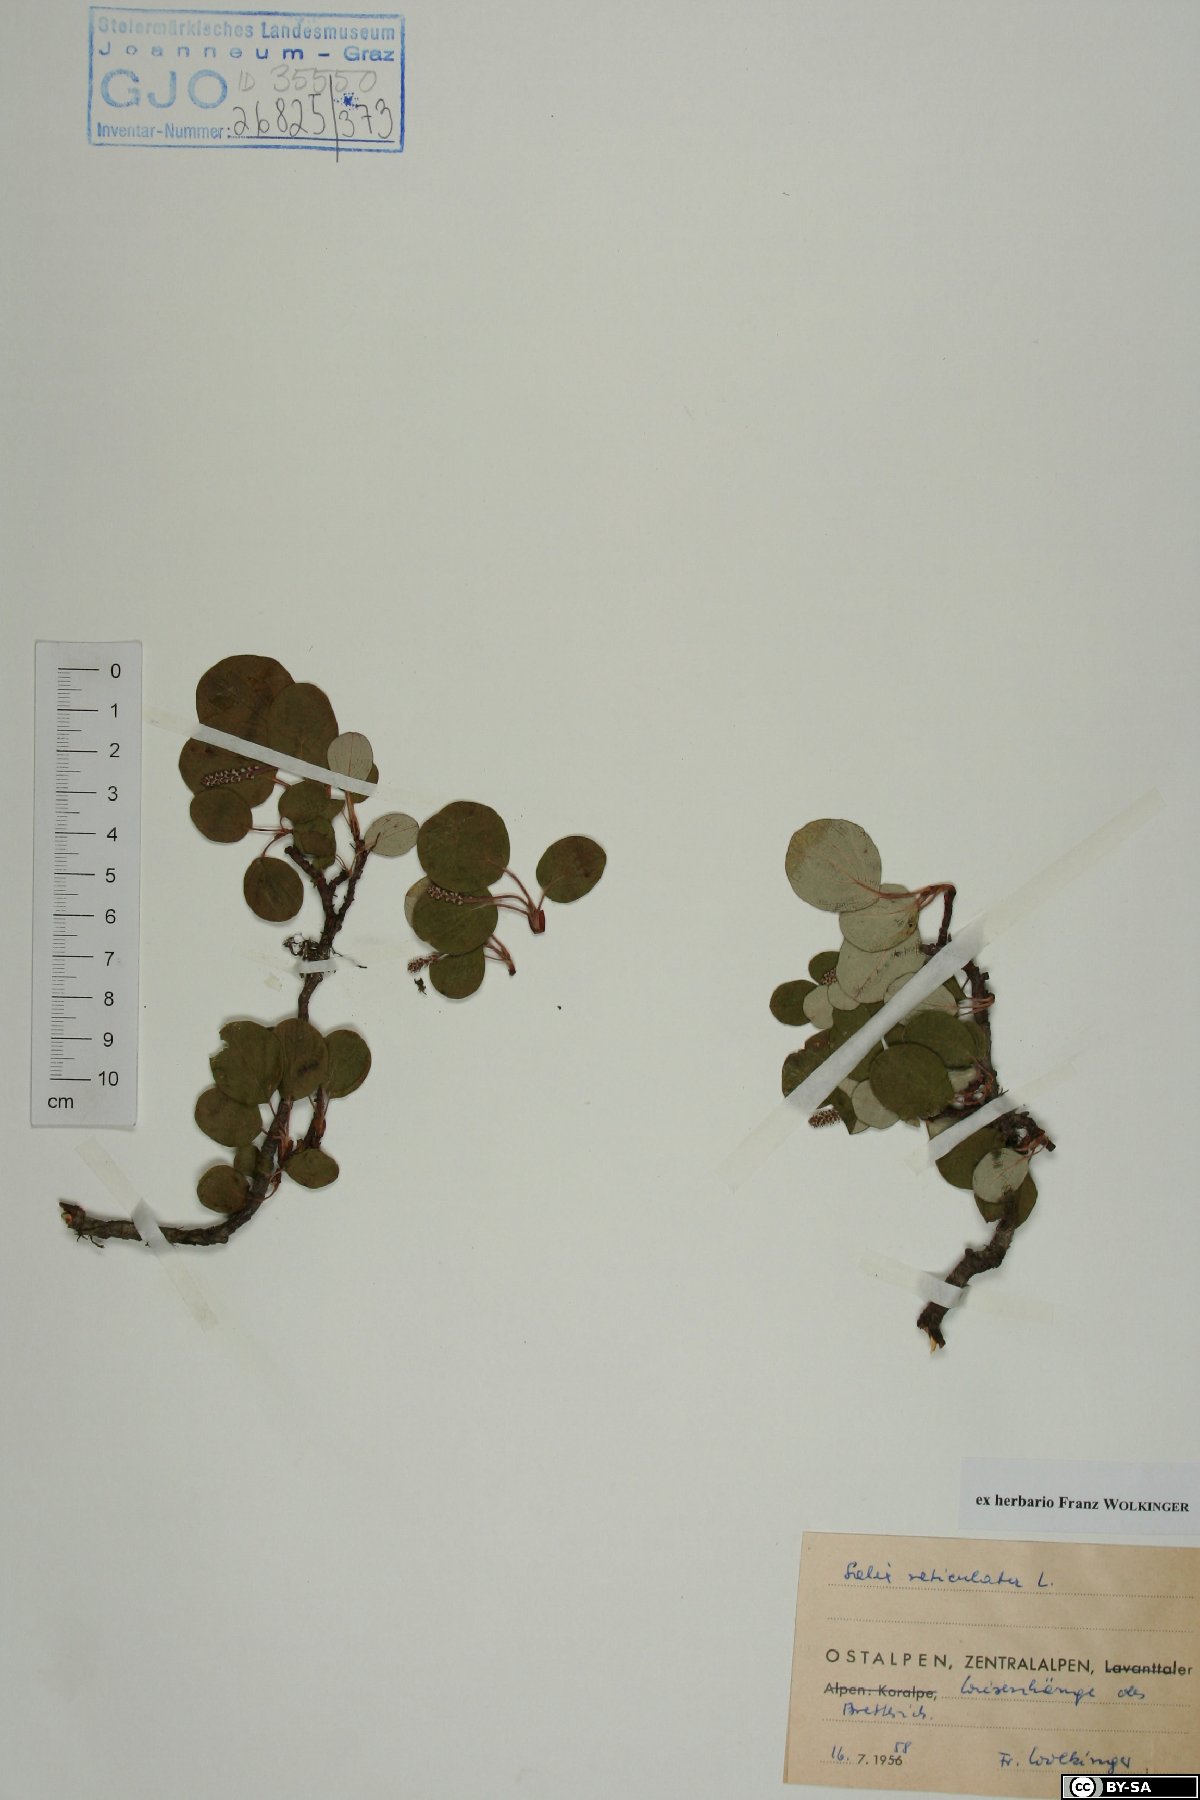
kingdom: Plantae
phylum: Tracheophyta
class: Magnoliopsida
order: Malpighiales
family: Salicaceae
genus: Salix
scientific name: Salix reticulata
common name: Net-leaved willow
